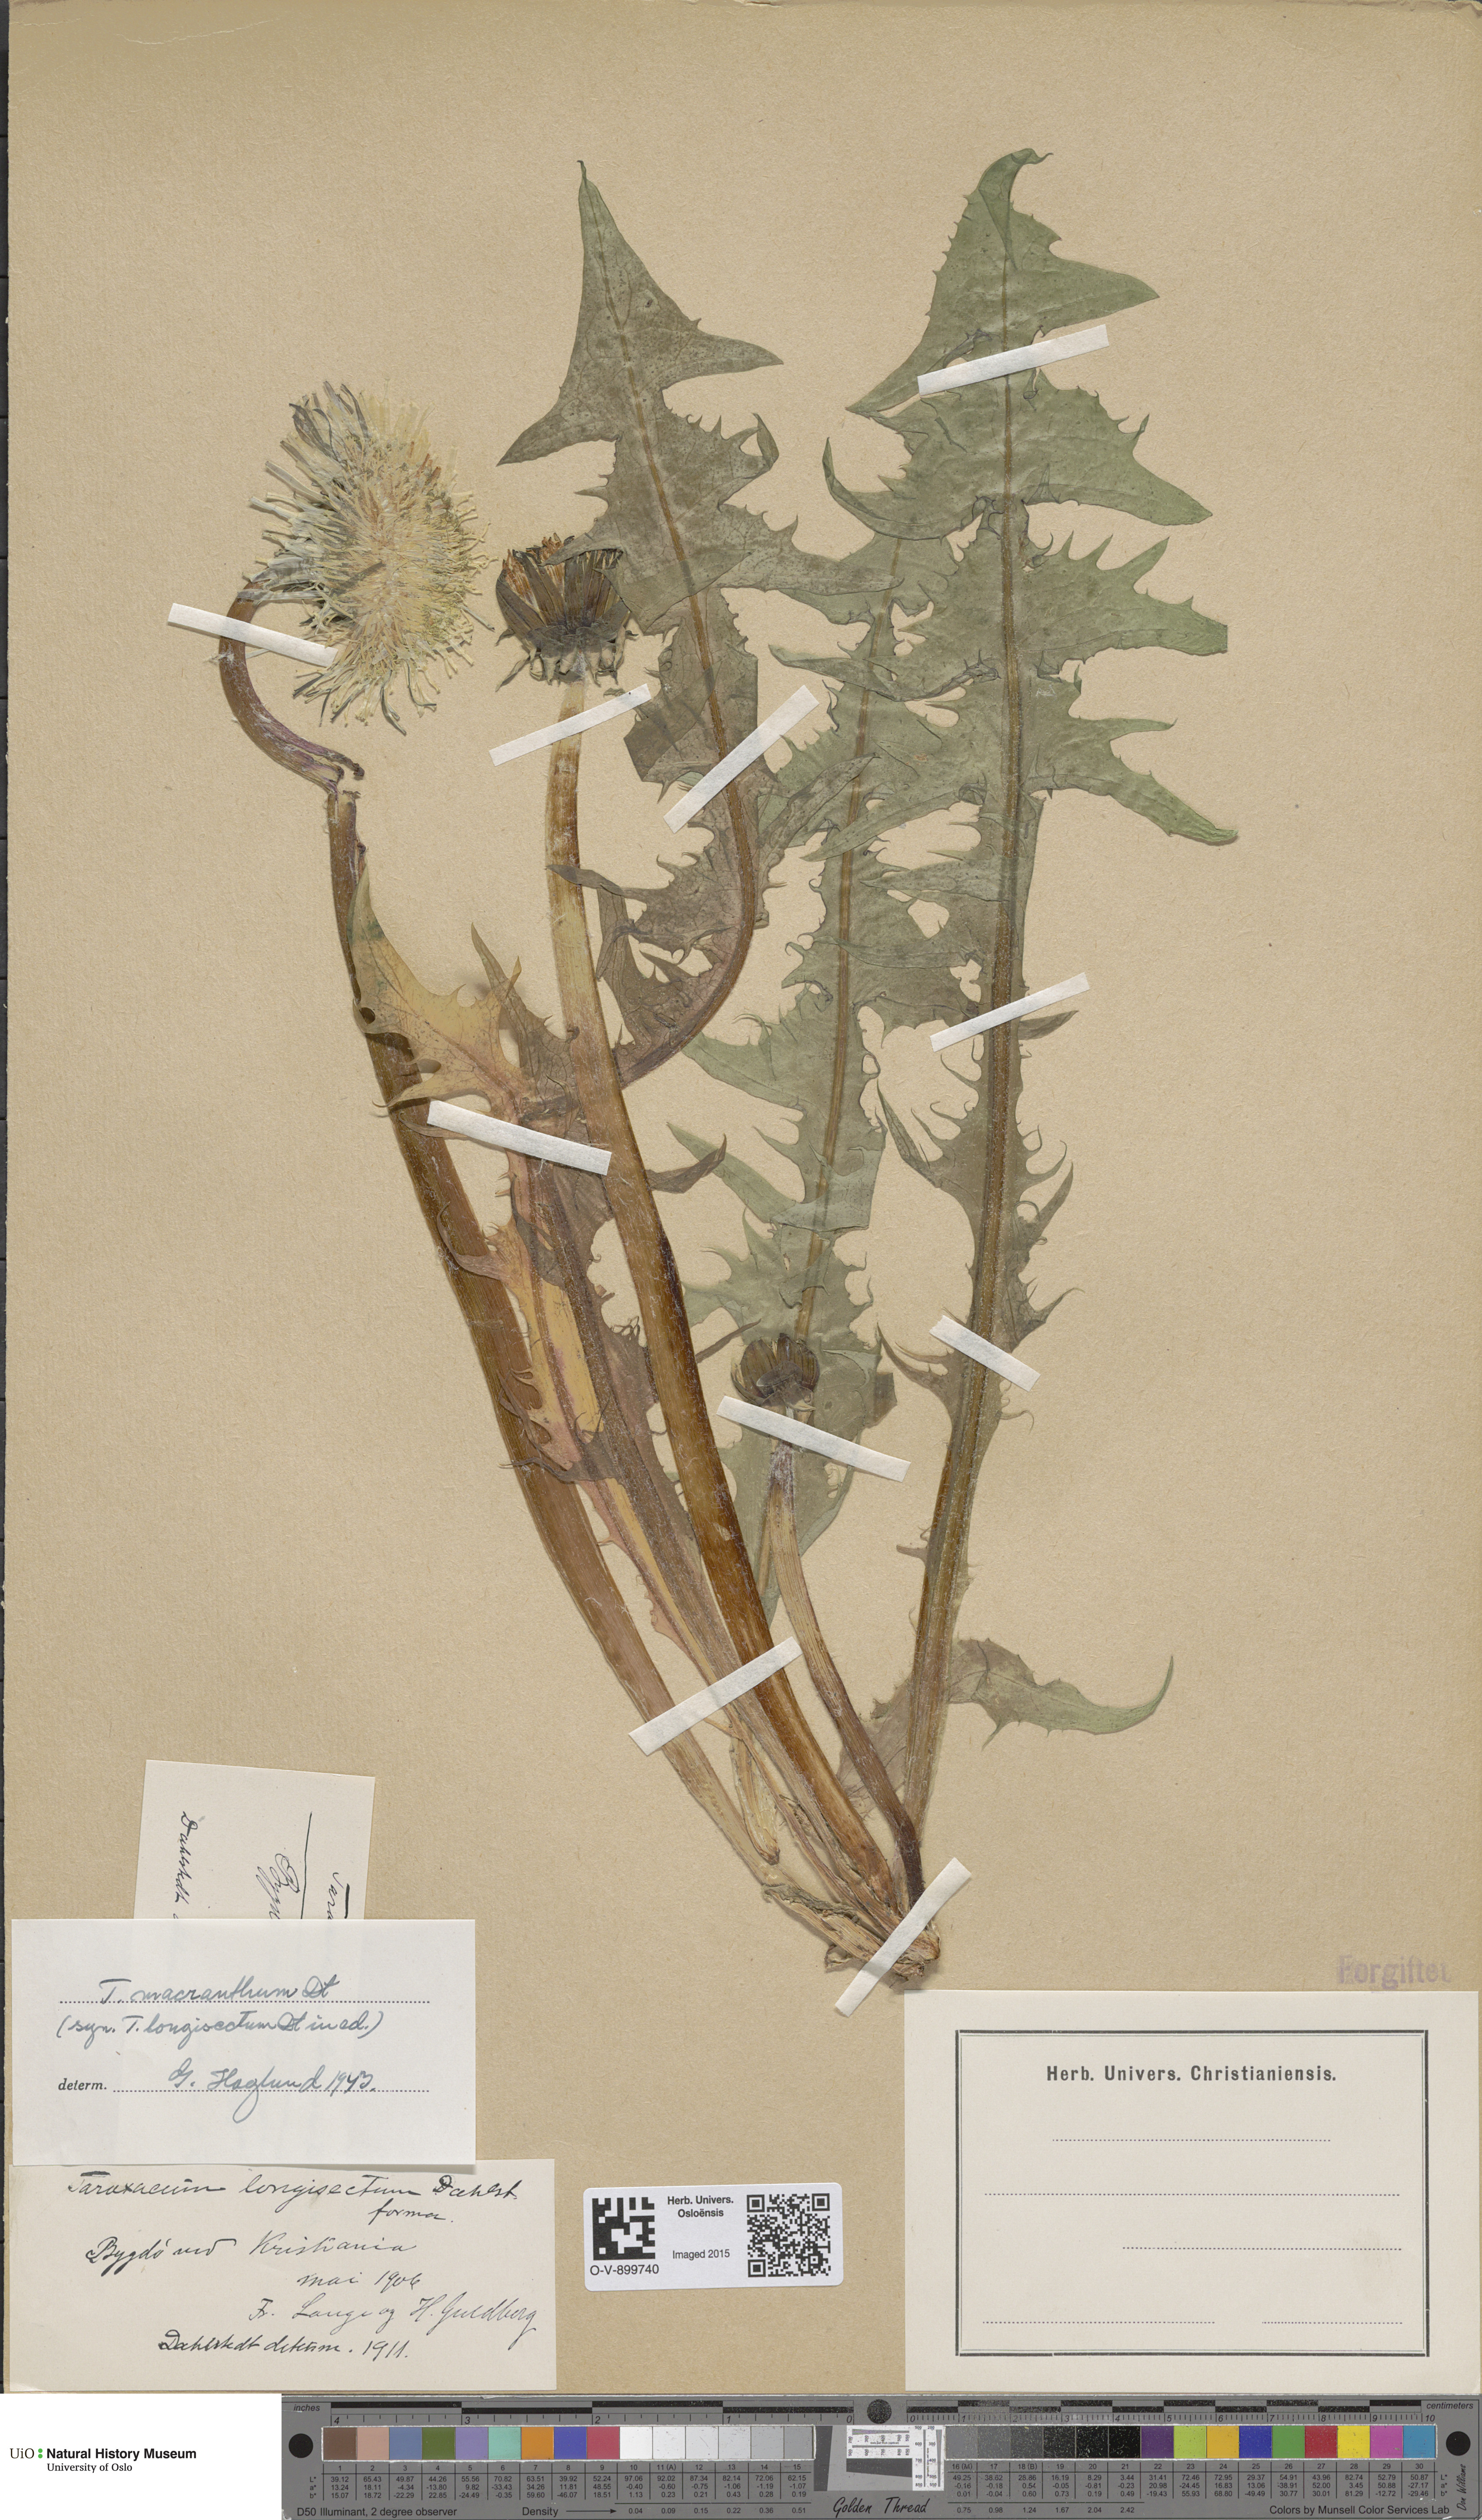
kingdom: Plantae
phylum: Tracheophyta
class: Magnoliopsida
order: Asterales
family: Asteraceae
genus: Taraxacum
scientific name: Taraxacum praeradians
